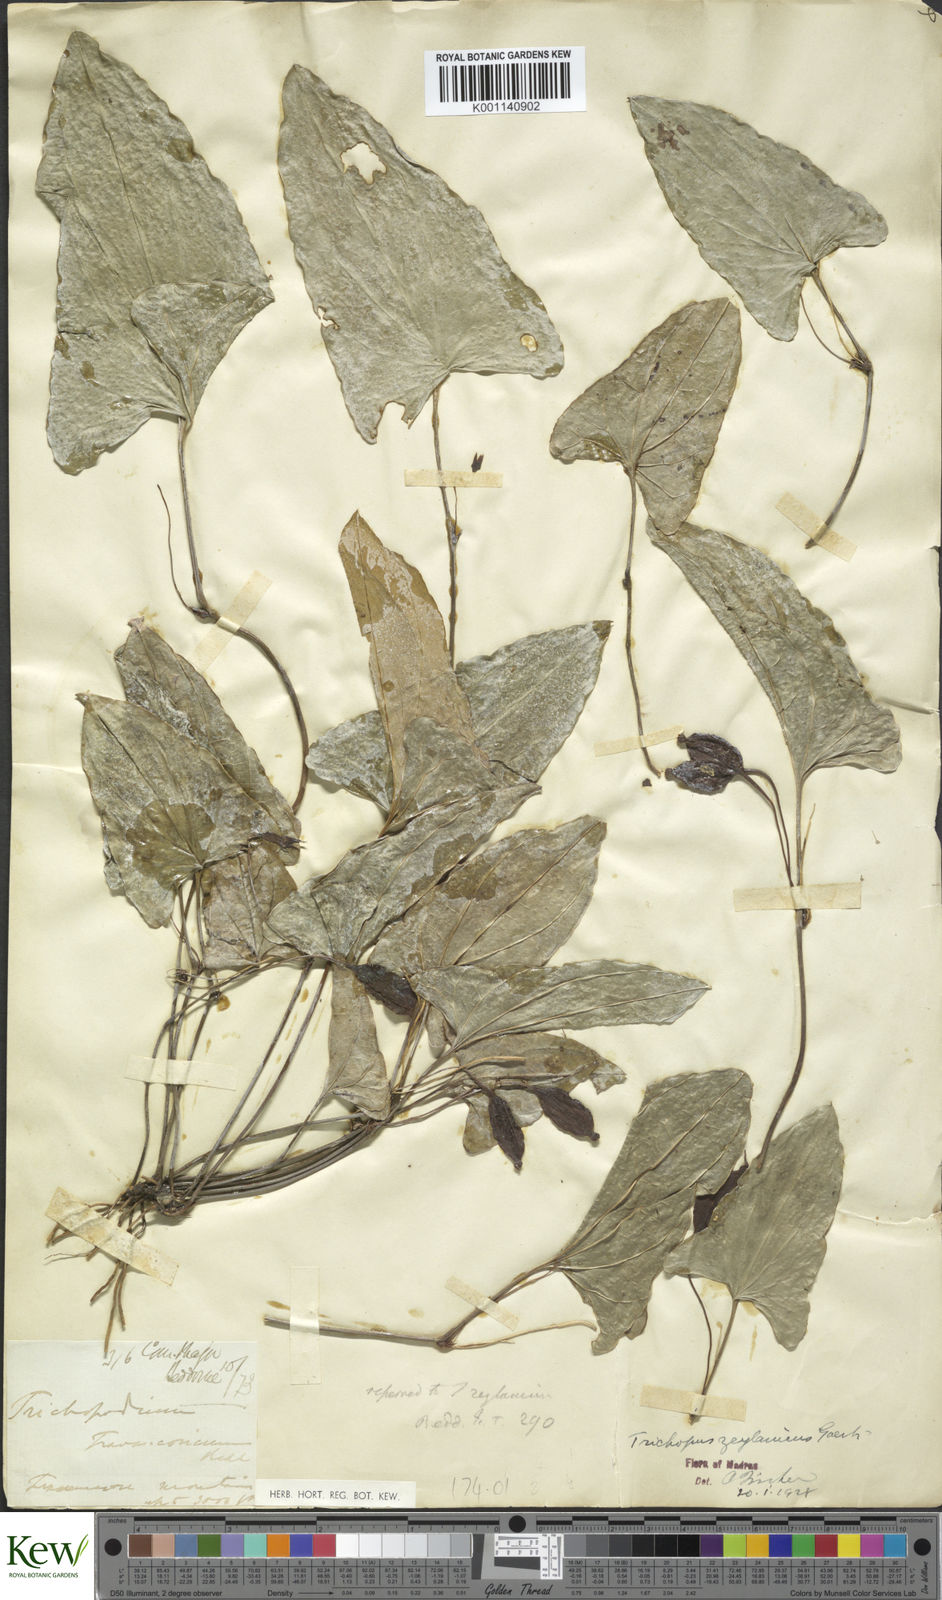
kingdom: Plantae
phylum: Tracheophyta
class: Liliopsida
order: Dioscoreales
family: Dioscoreaceae
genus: Trichopus
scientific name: Trichopus zeylanicus
